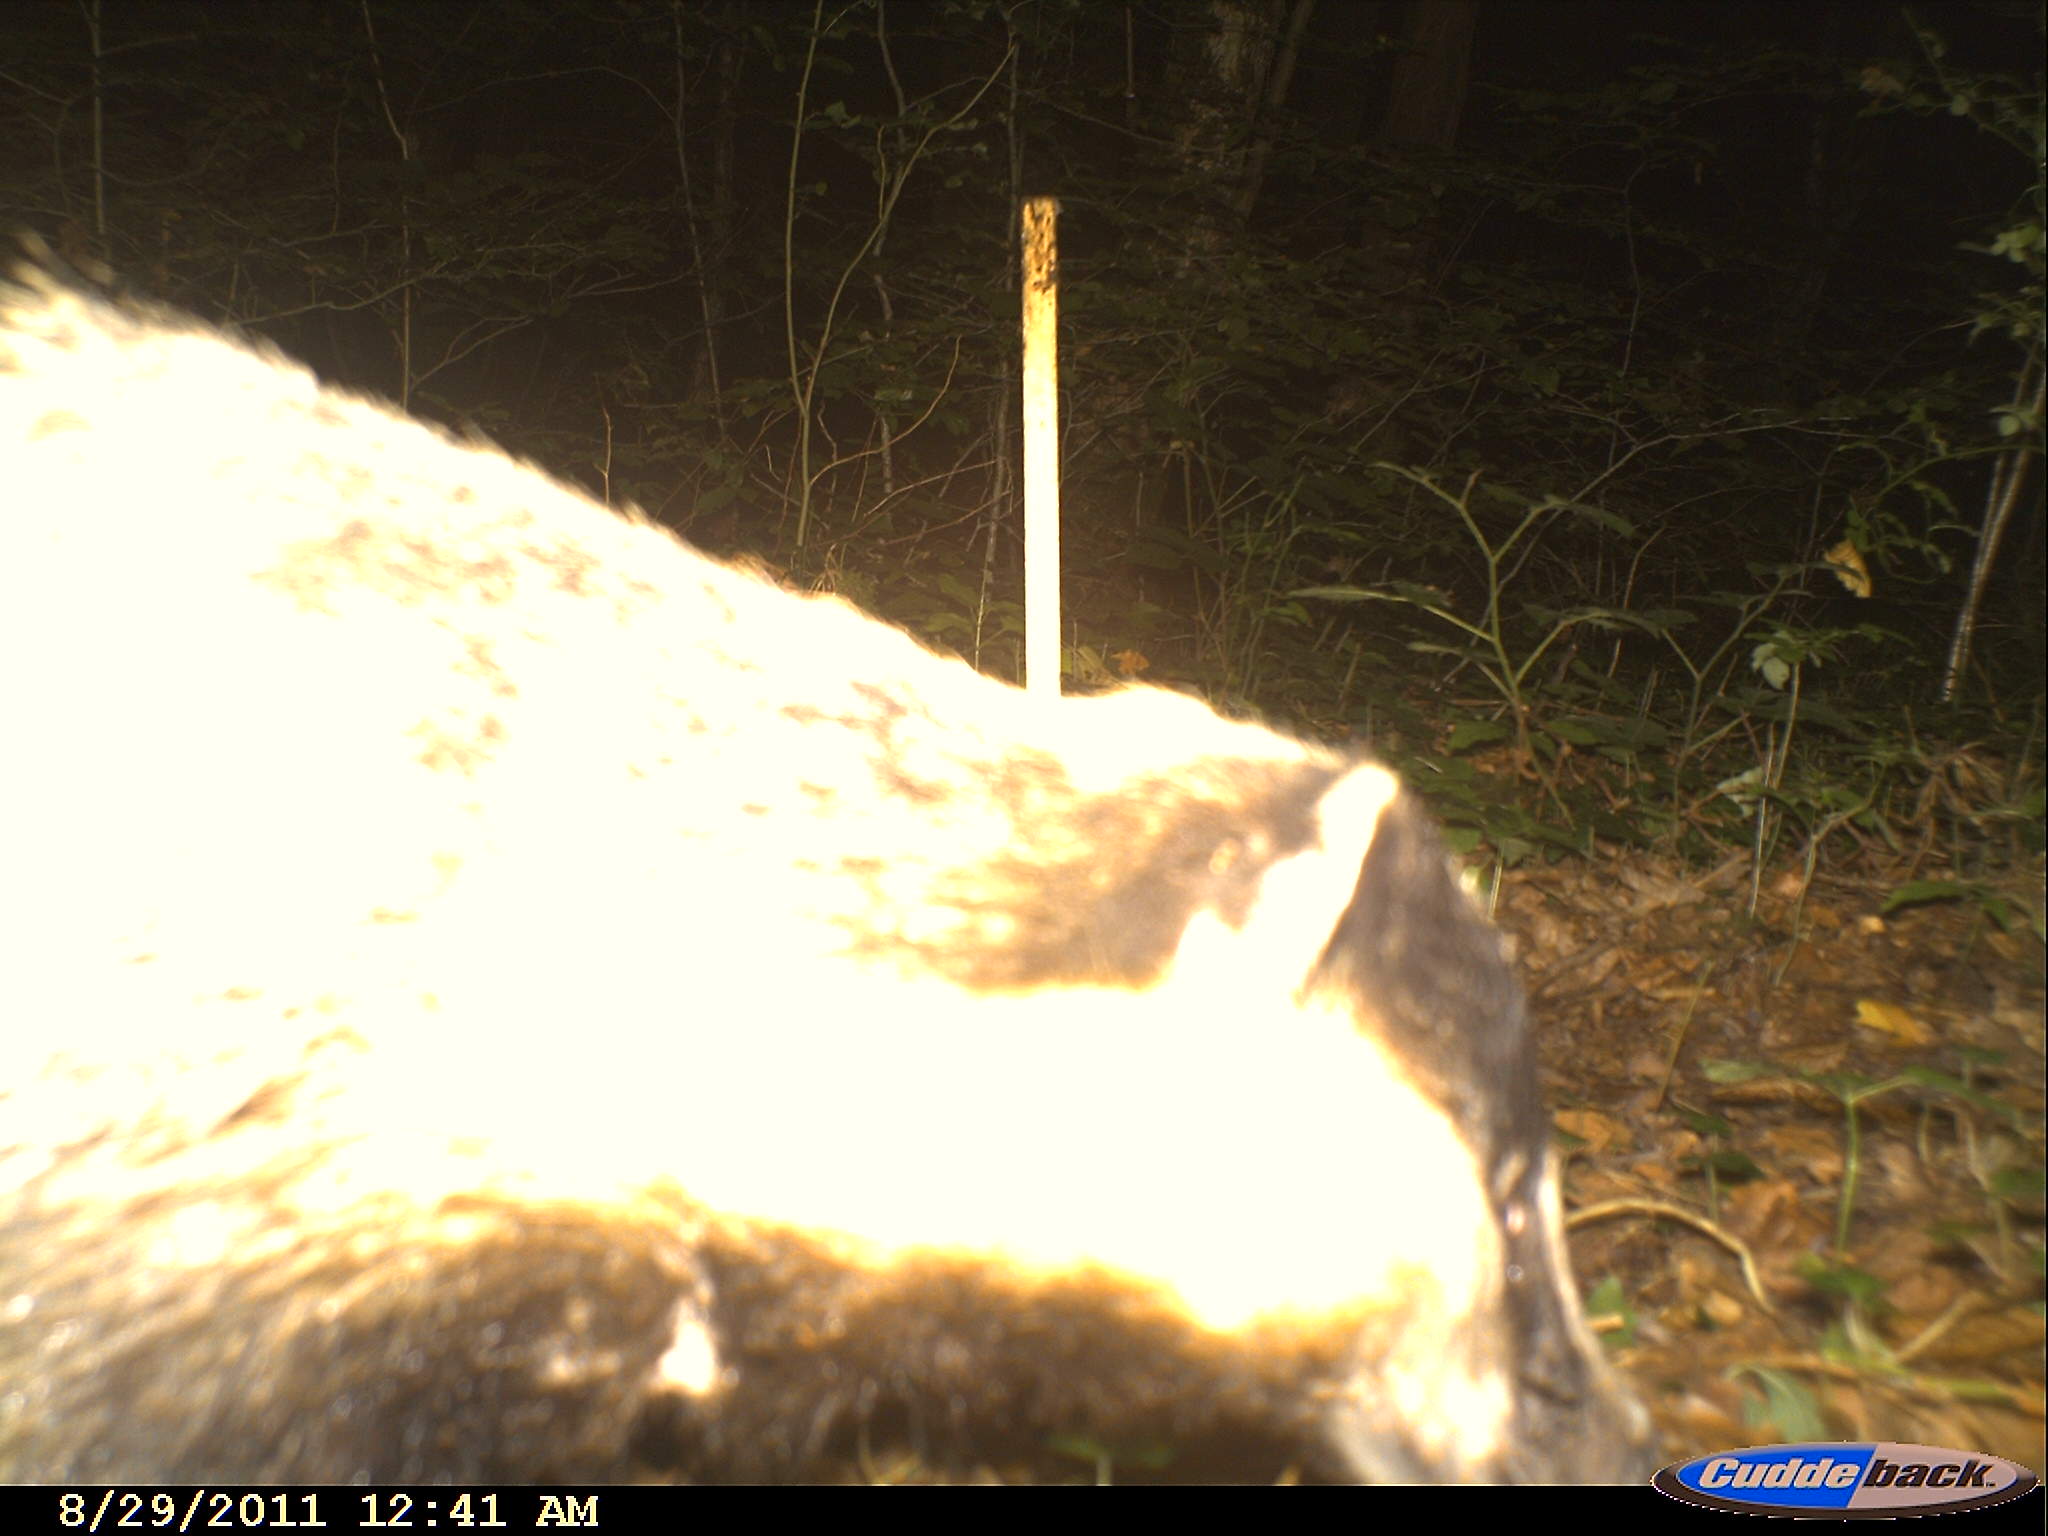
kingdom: Animalia
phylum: Chordata
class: Mammalia
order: Carnivora
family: Mustelidae
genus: Meles
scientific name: Meles meles
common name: Eurasian badger
